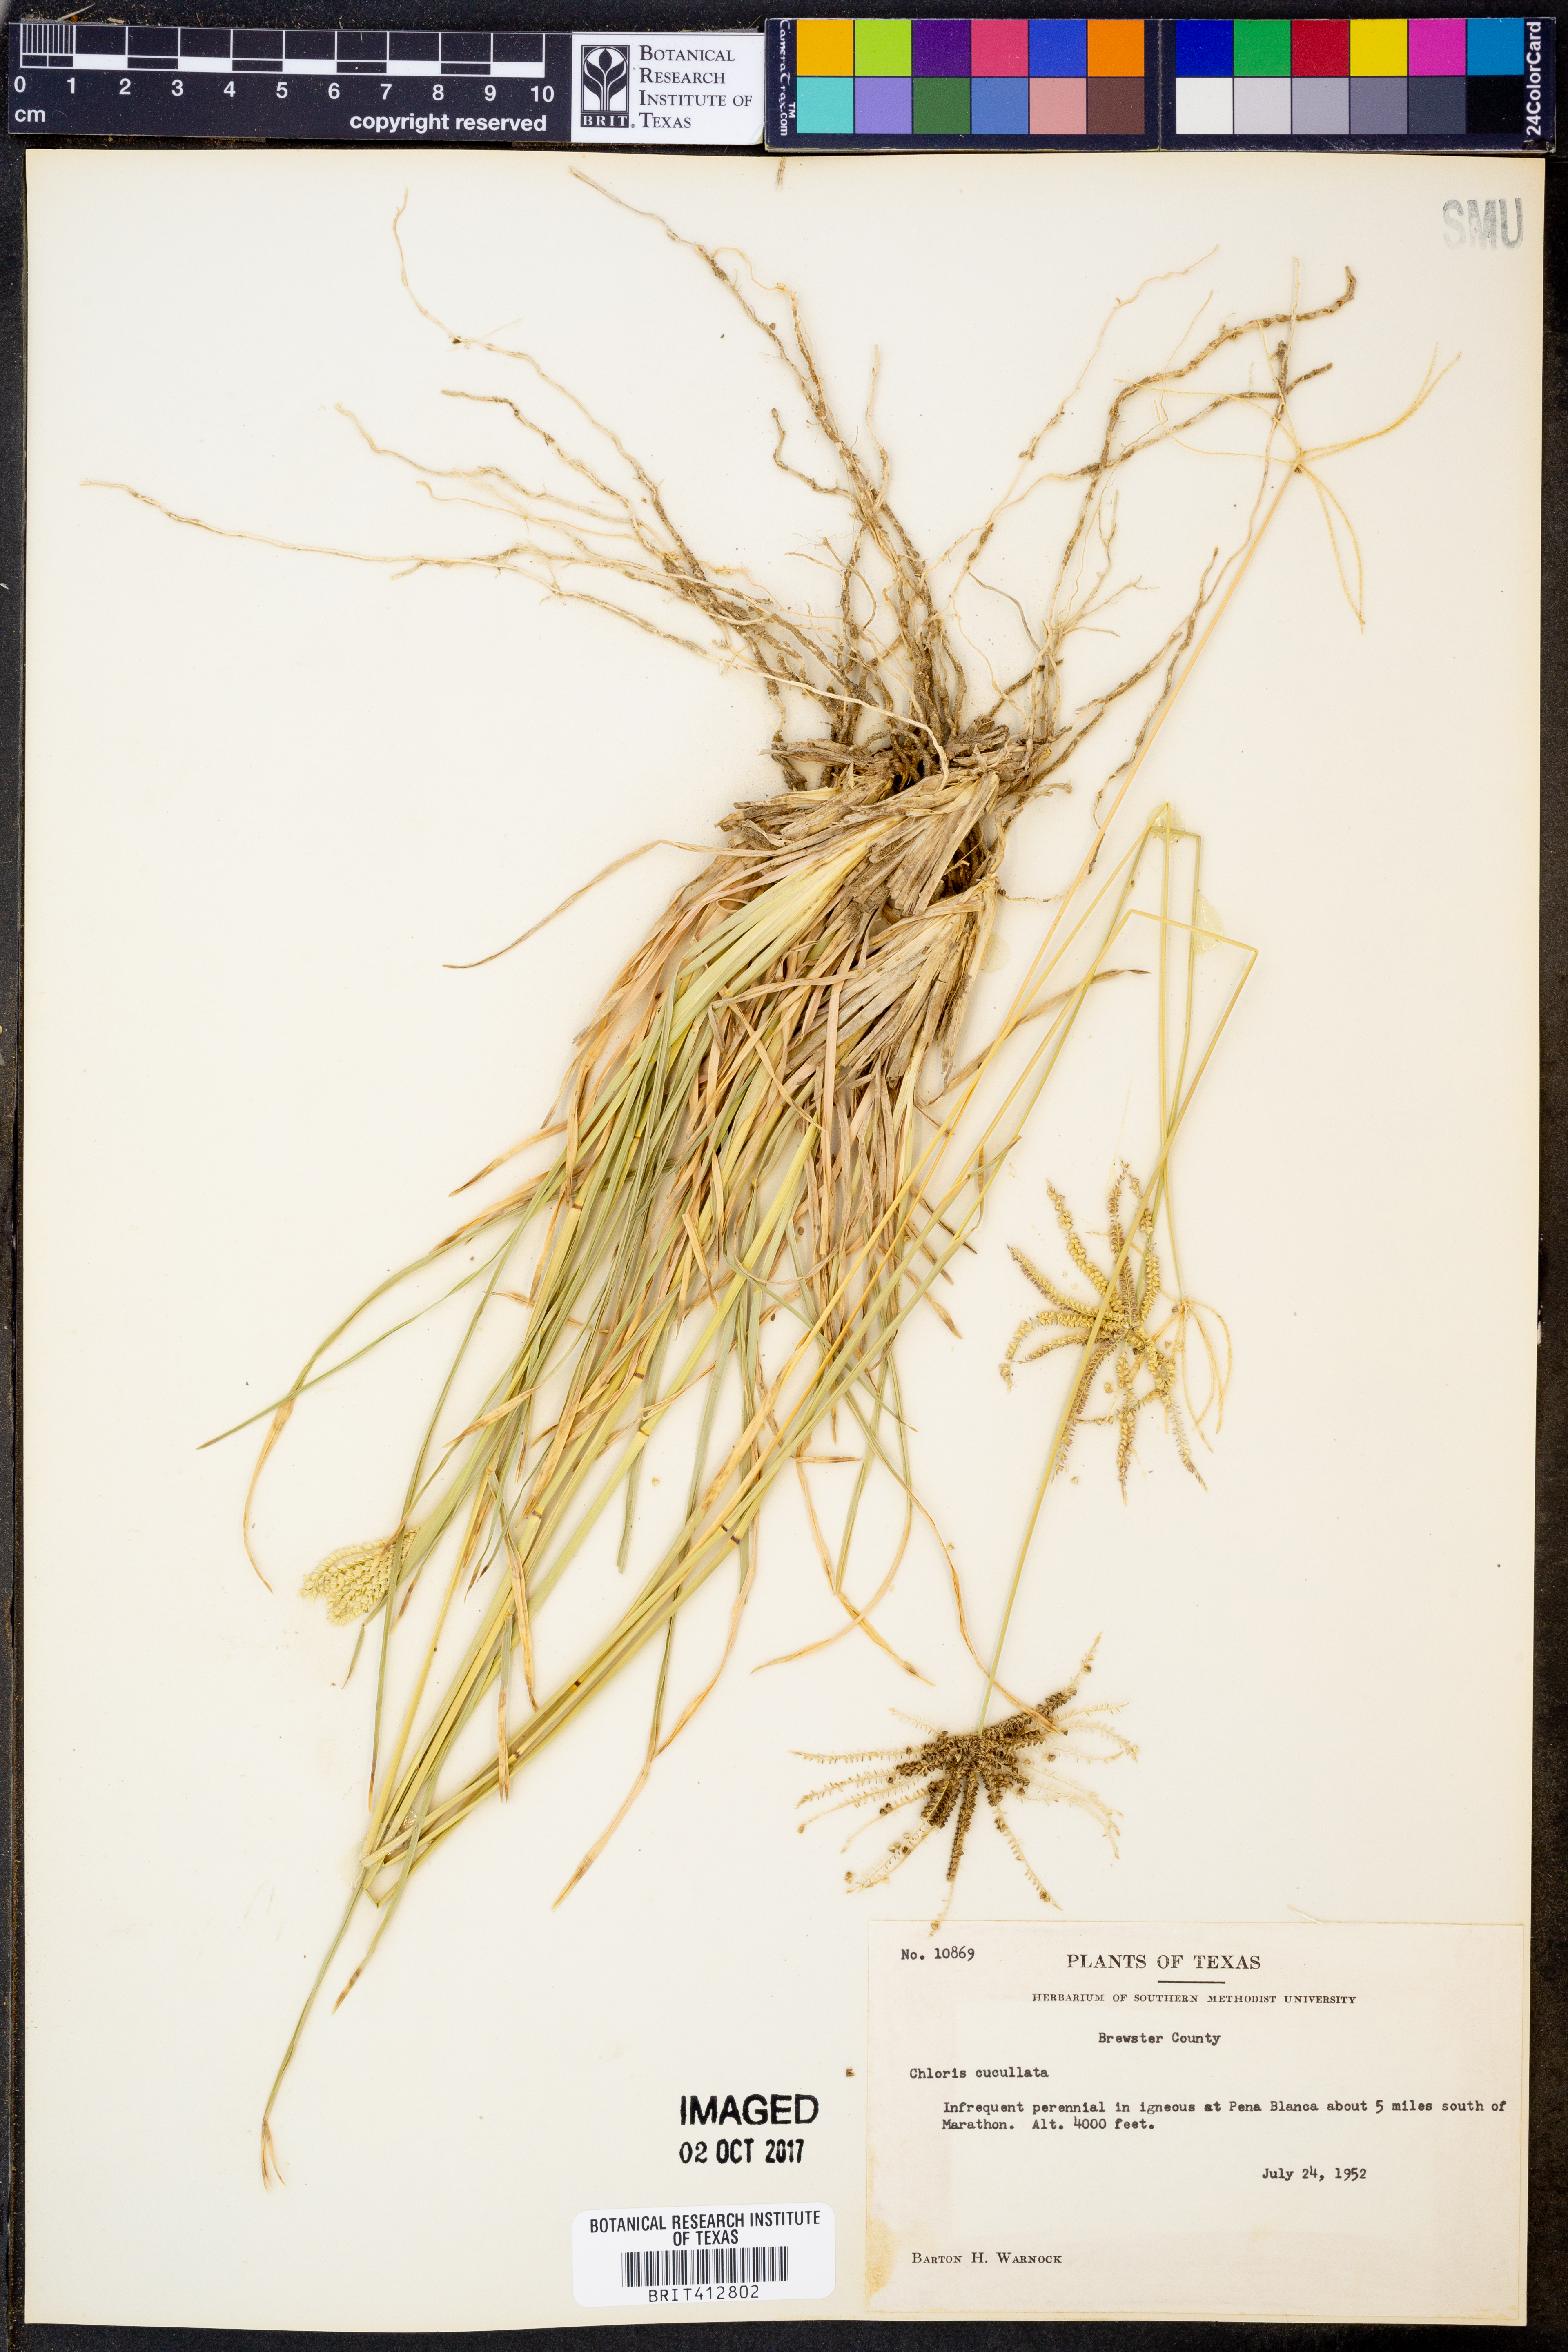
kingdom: Plantae
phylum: Tracheophyta
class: Liliopsida
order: Poales
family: Poaceae
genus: Chloris
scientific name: Chloris cucullata
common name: Hooded windmill grass
